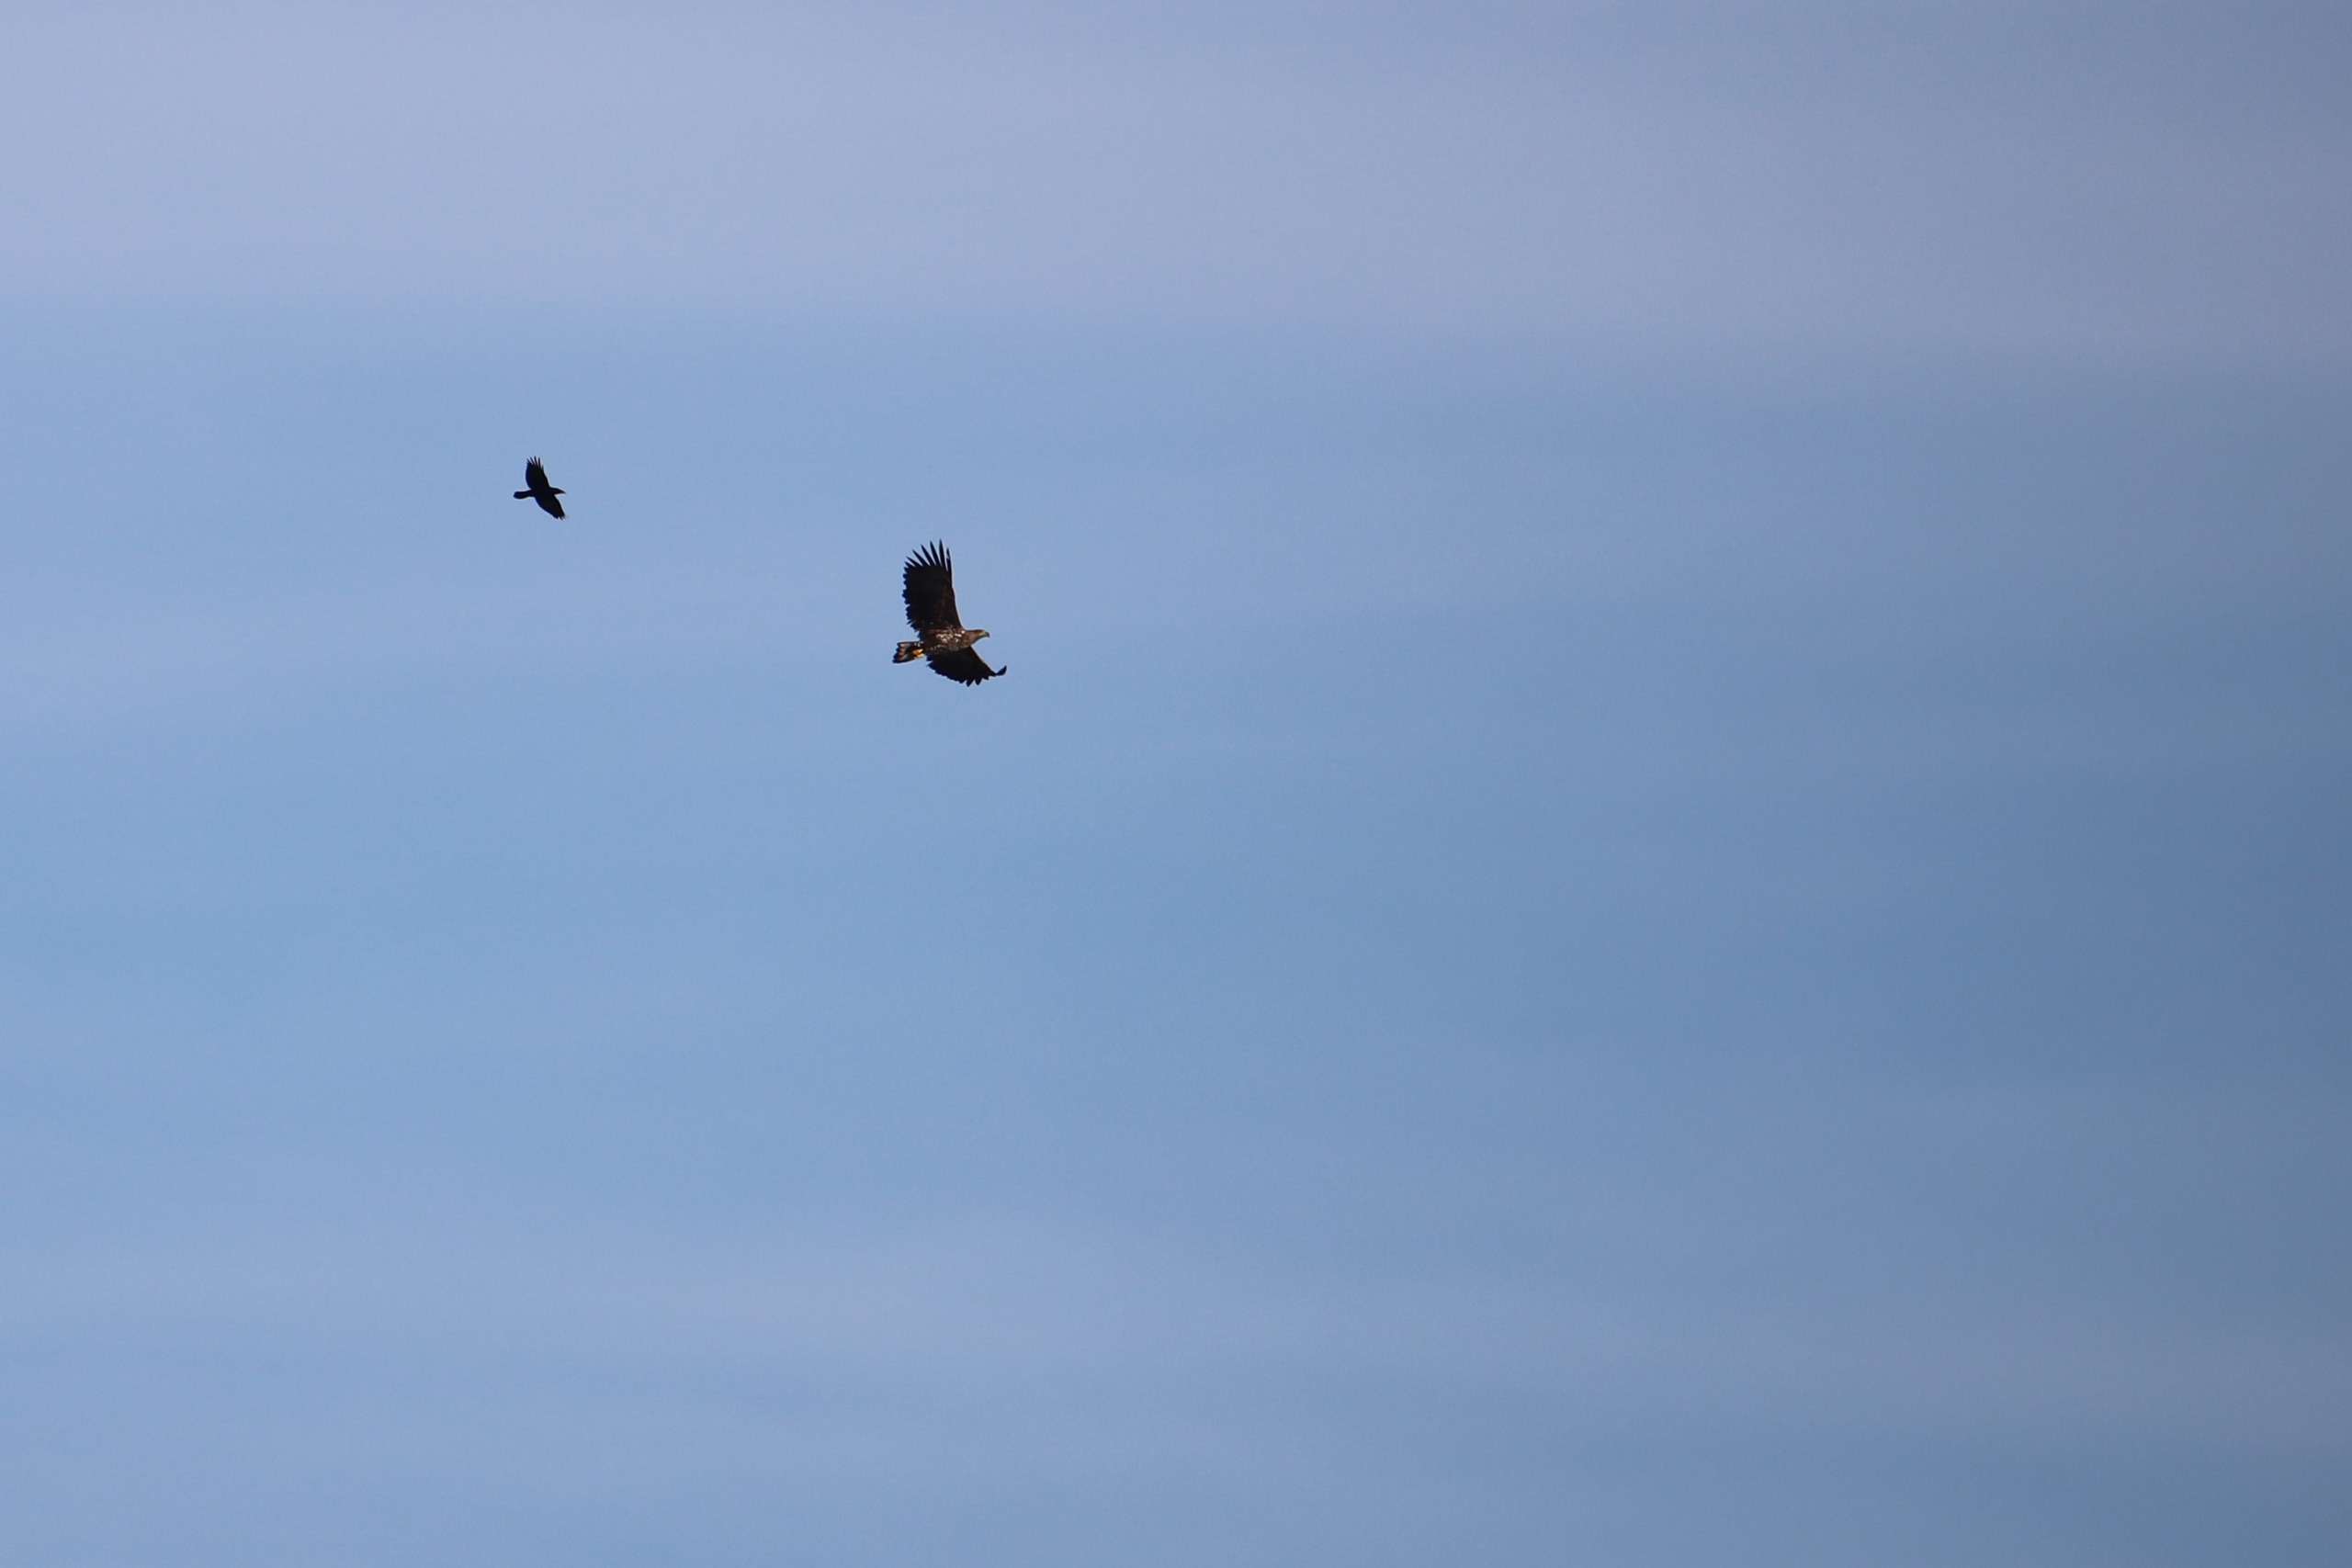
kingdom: Animalia
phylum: Chordata
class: Aves
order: Accipitriformes
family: Accipitridae
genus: Haliaeetus
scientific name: Haliaeetus albicilla
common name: Havørn
